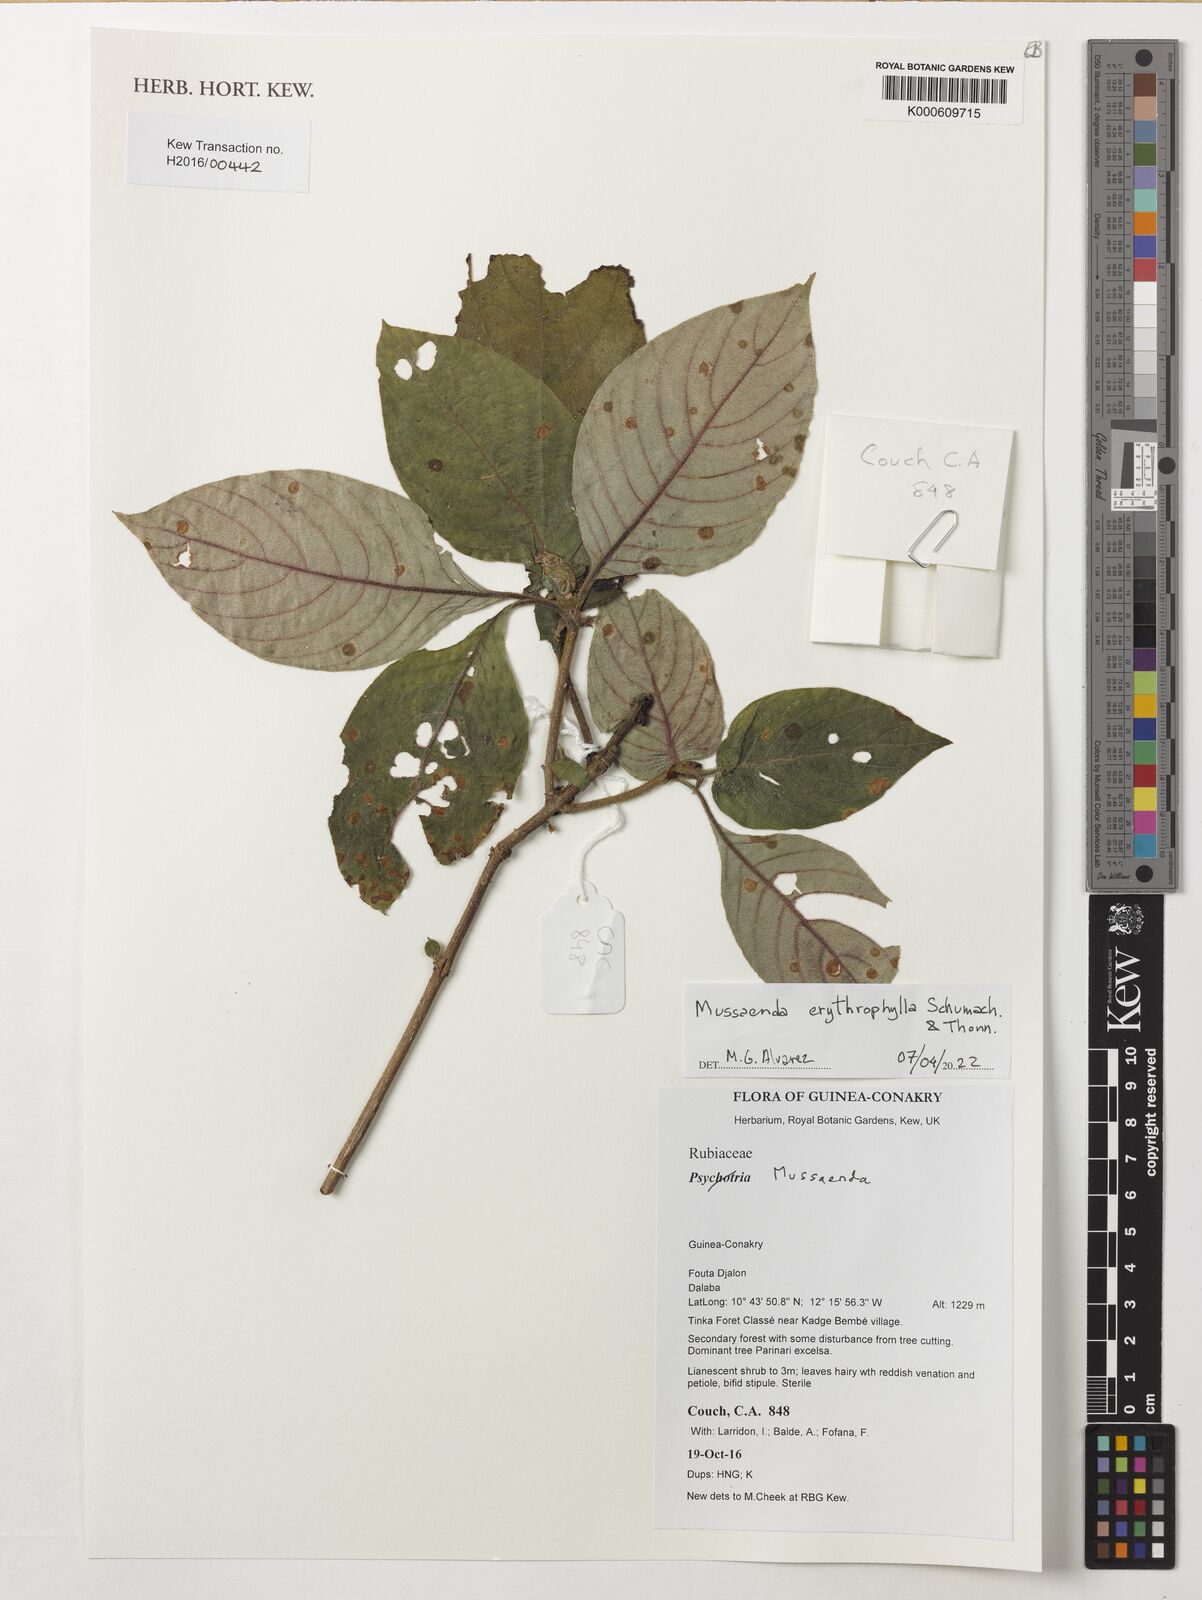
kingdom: Plantae
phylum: Tracheophyta
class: Magnoliopsida
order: Gentianales
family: Rubiaceae
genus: Mussaenda
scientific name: Mussaenda
